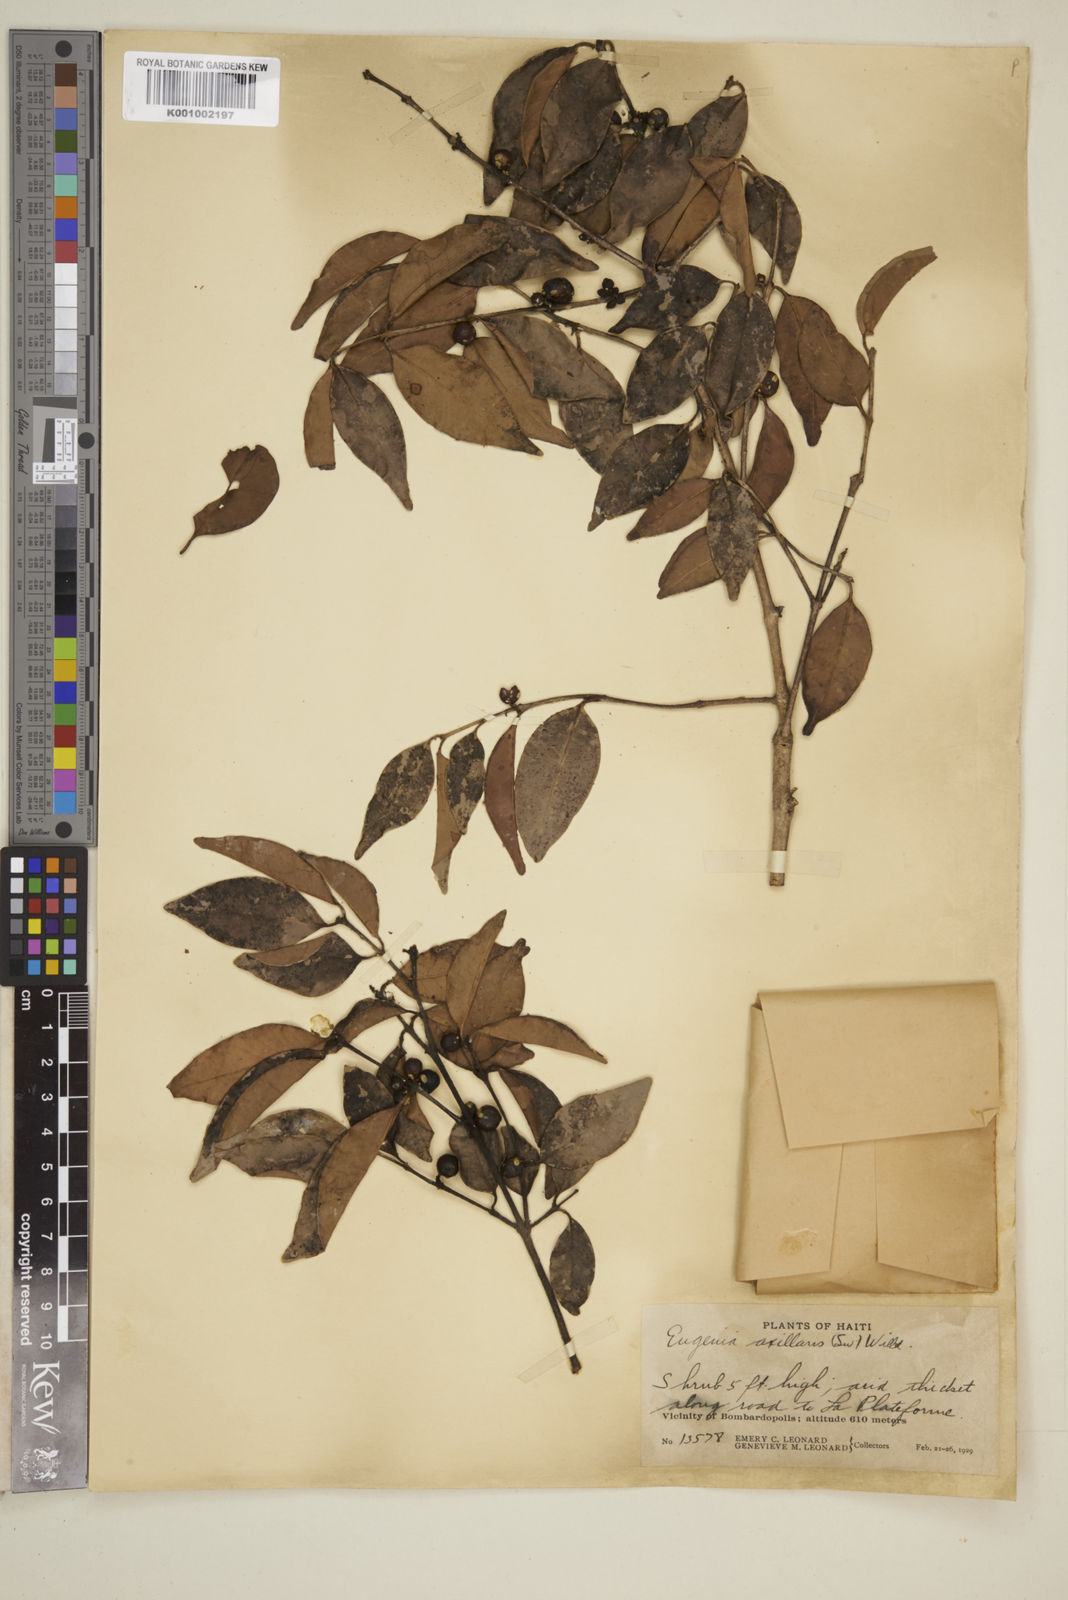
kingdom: Plantae
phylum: Tracheophyta
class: Magnoliopsida
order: Myrtales
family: Myrtaceae
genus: Eugenia
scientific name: Eugenia axillaris
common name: Choaky berry
